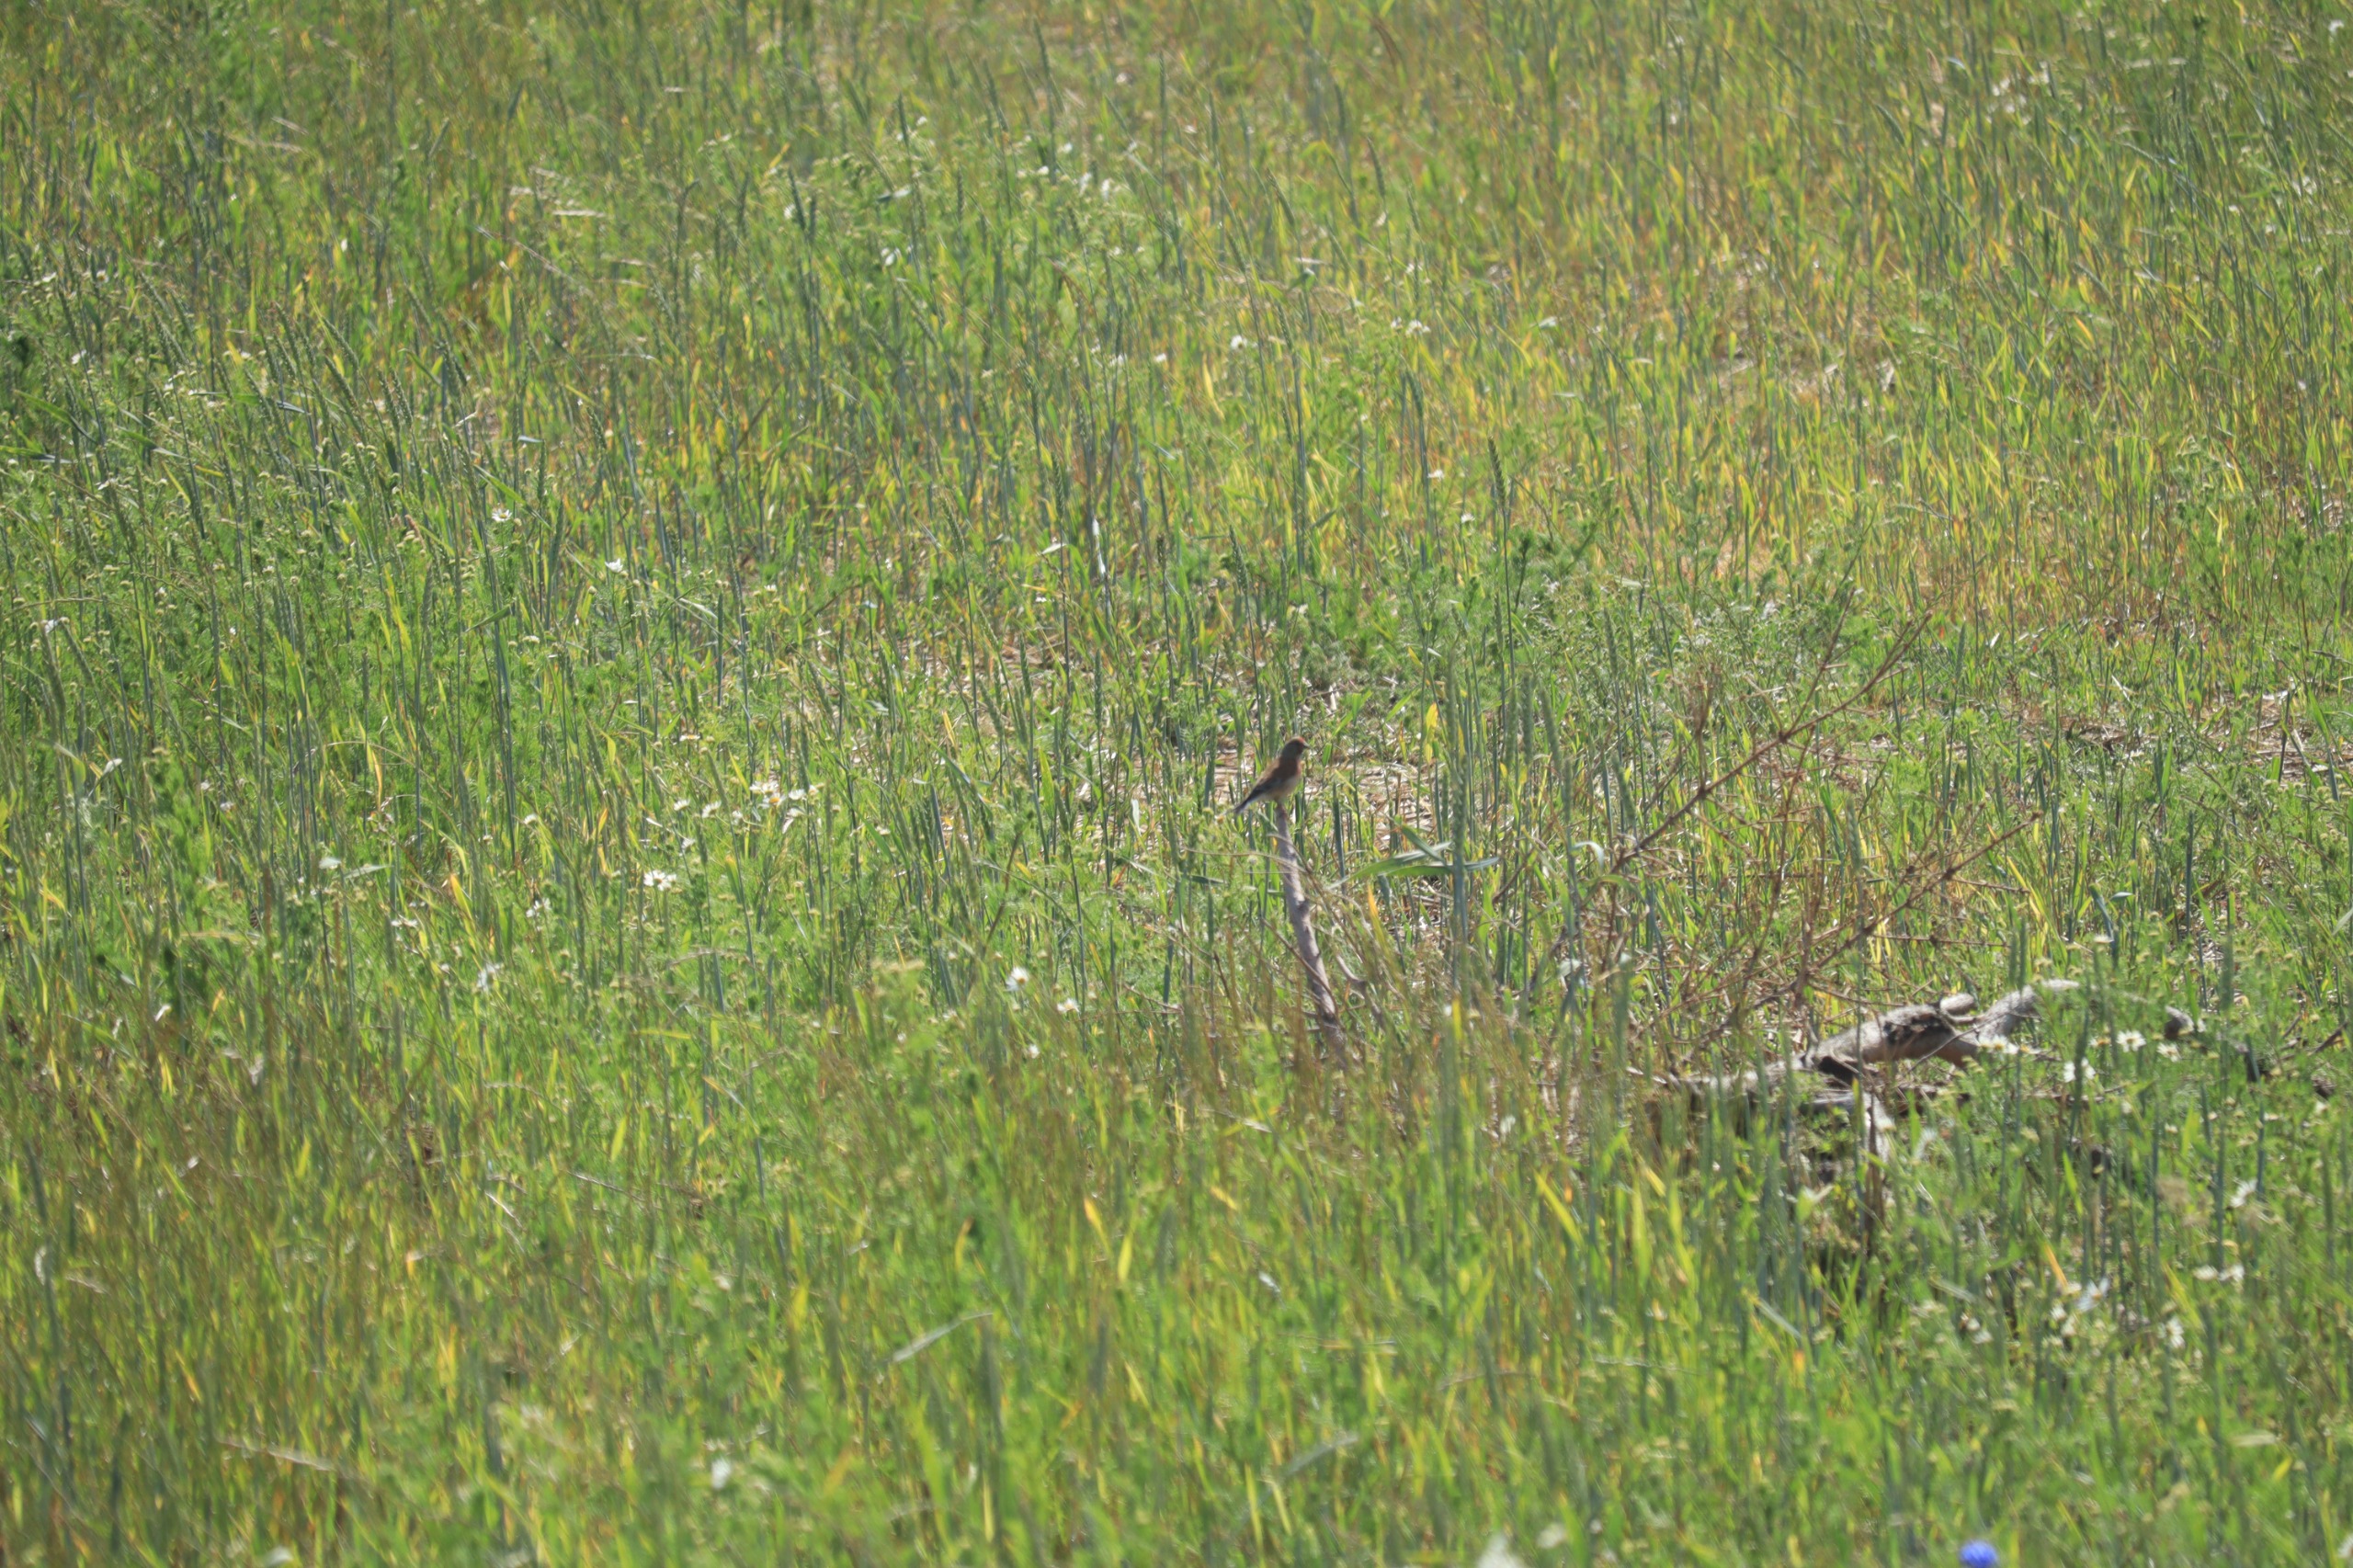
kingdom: Animalia
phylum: Chordata
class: Aves
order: Passeriformes
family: Fringillidae
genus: Linaria
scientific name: Linaria cannabina
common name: Tornirisk
